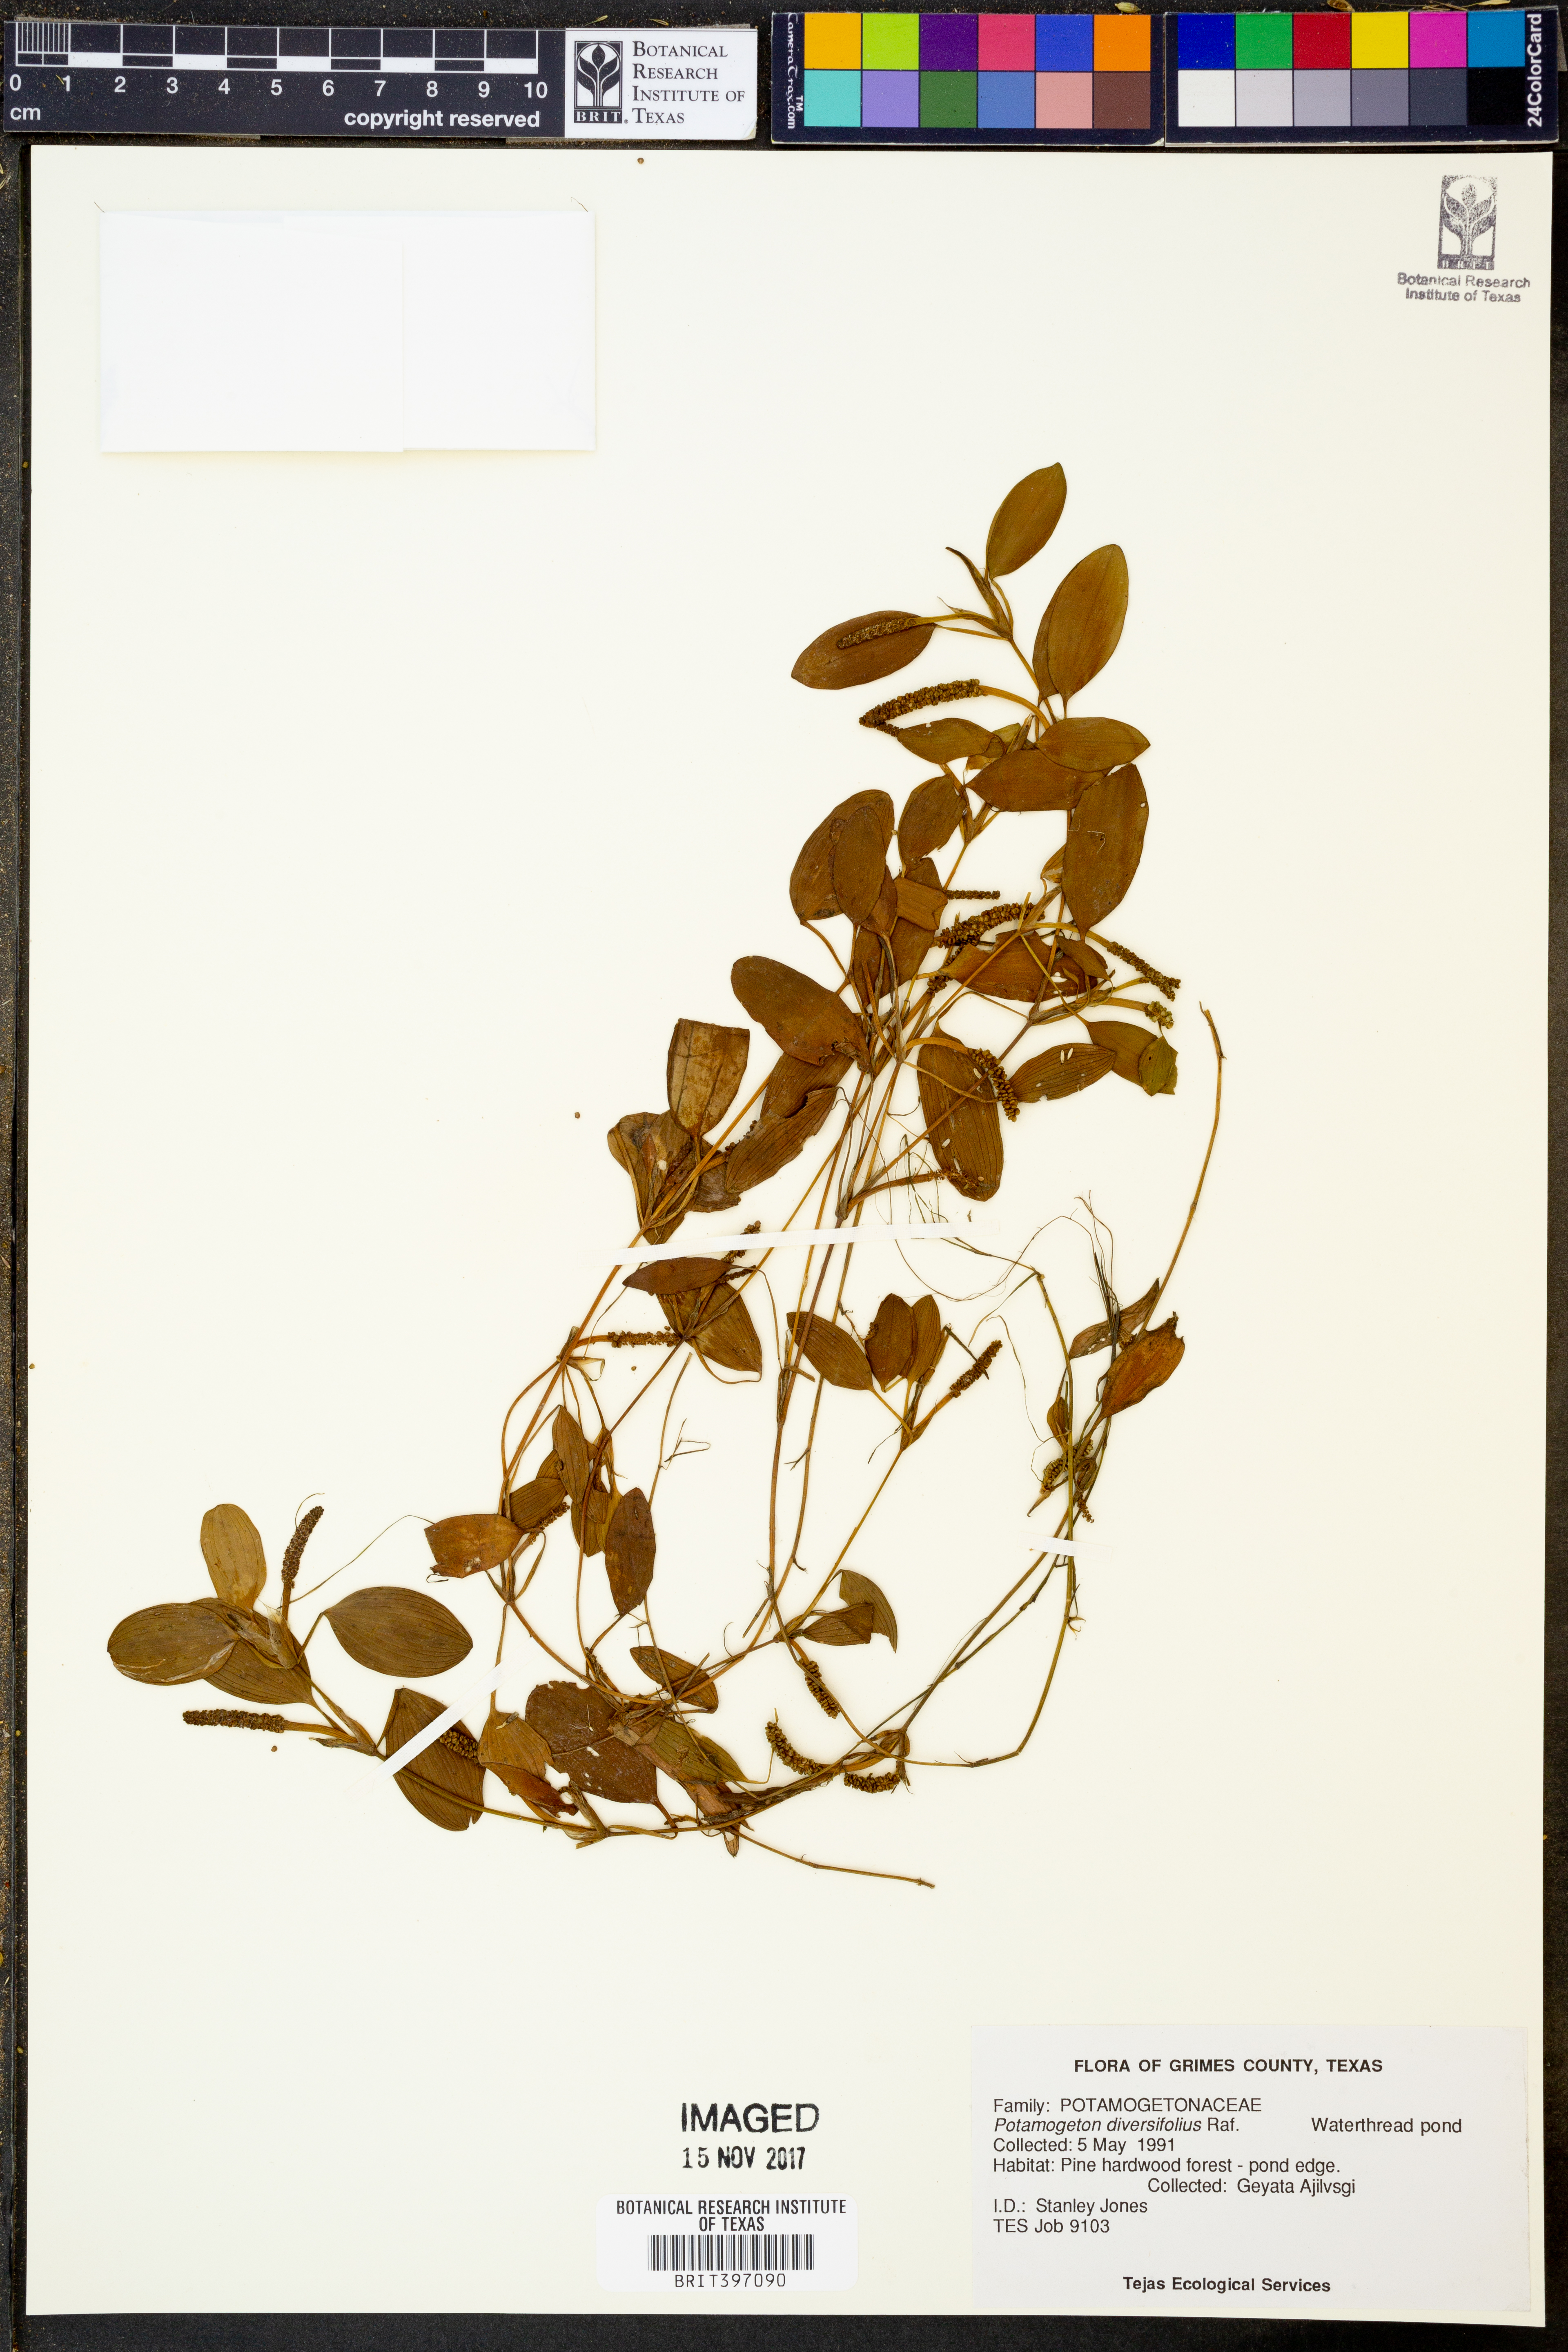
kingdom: Plantae
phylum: Tracheophyta
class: Liliopsida
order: Alismatales
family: Potamogetonaceae
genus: Potamogeton
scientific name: Potamogeton diversifolius
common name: Water-thread pondweed
